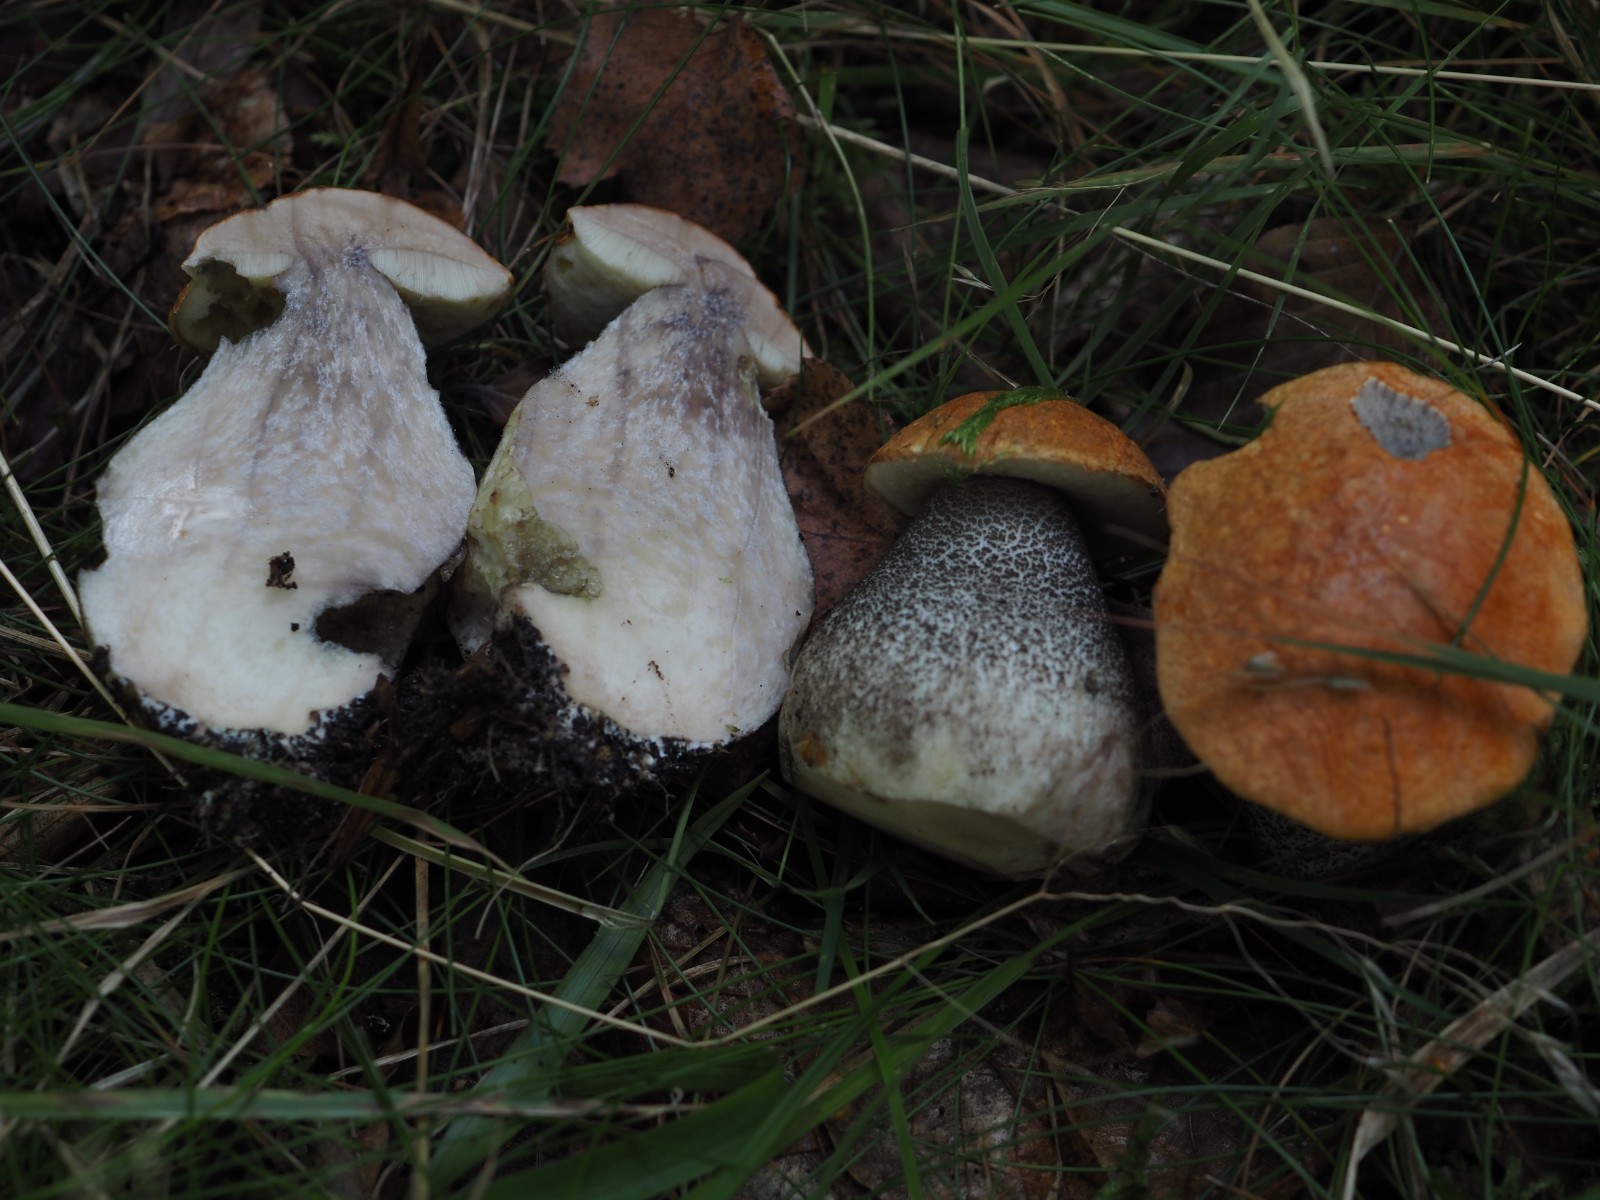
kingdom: Fungi
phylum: Basidiomycota
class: Agaricomycetes
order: Boletales
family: Boletaceae
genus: Leccinum
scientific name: Leccinum versipelle
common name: orange skælrørhat
